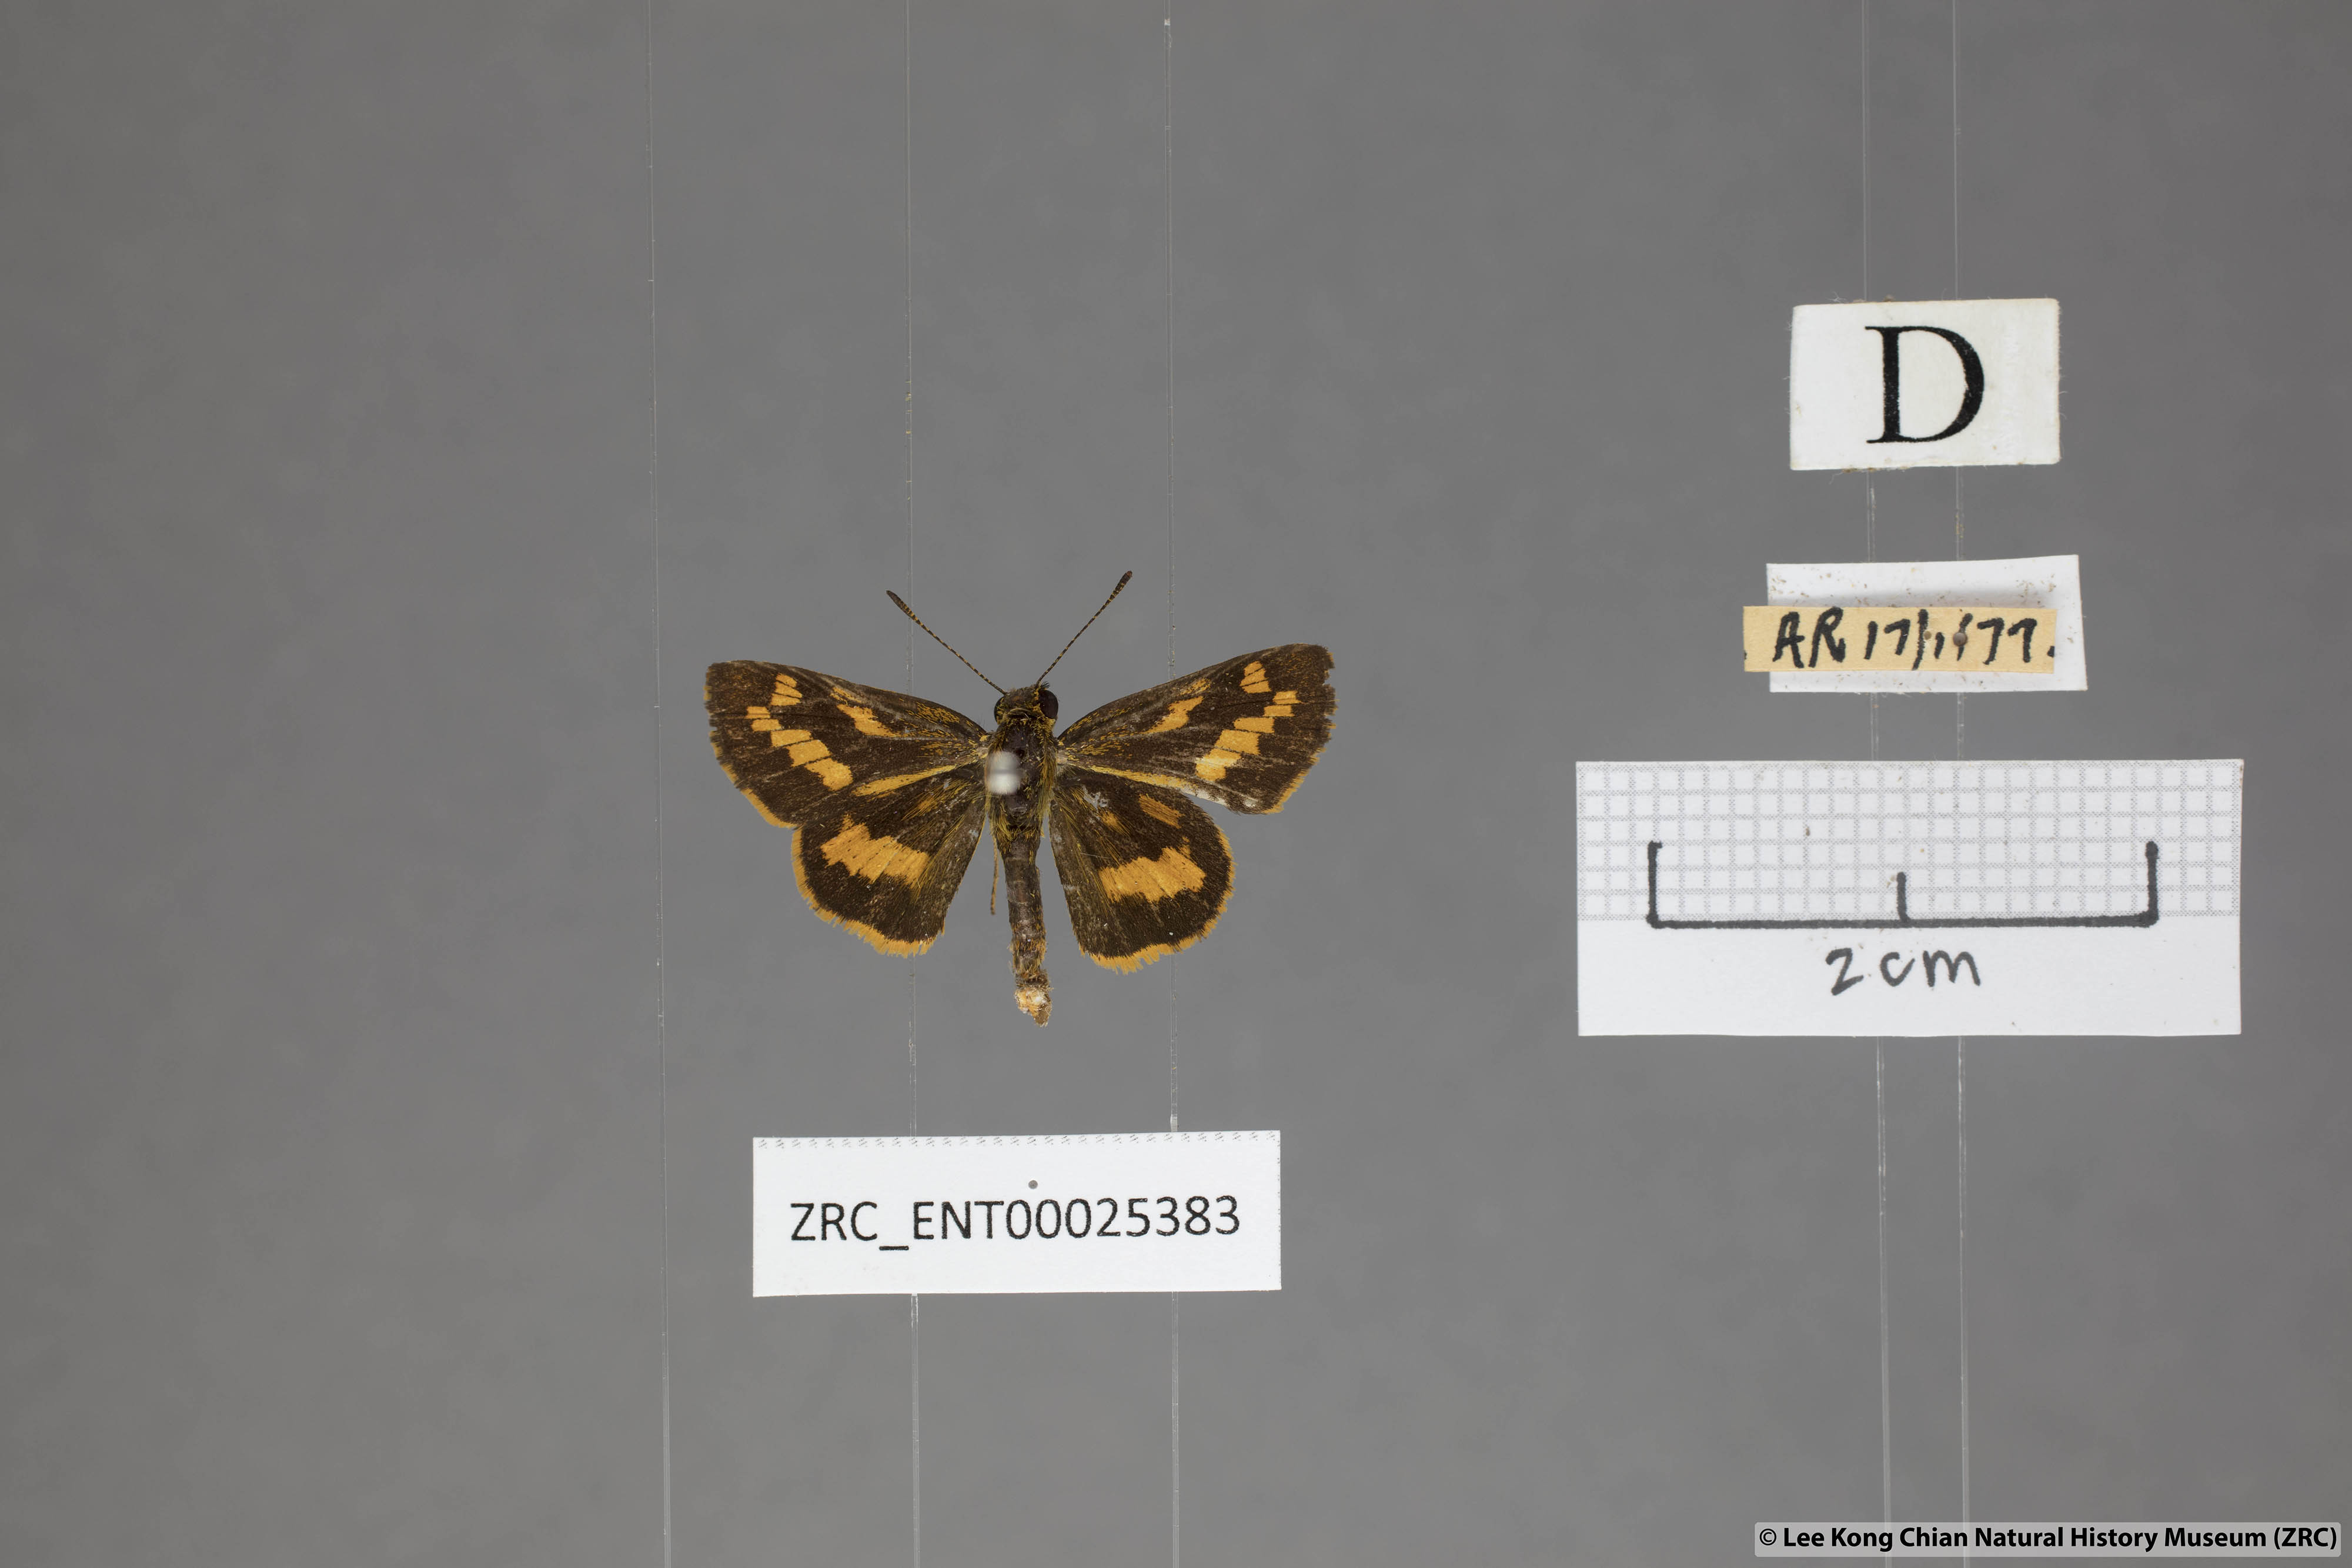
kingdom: Animalia
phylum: Arthropoda
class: Insecta
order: Lepidoptera
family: Hesperiidae
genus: Potanthus
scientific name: Potanthus ganda
